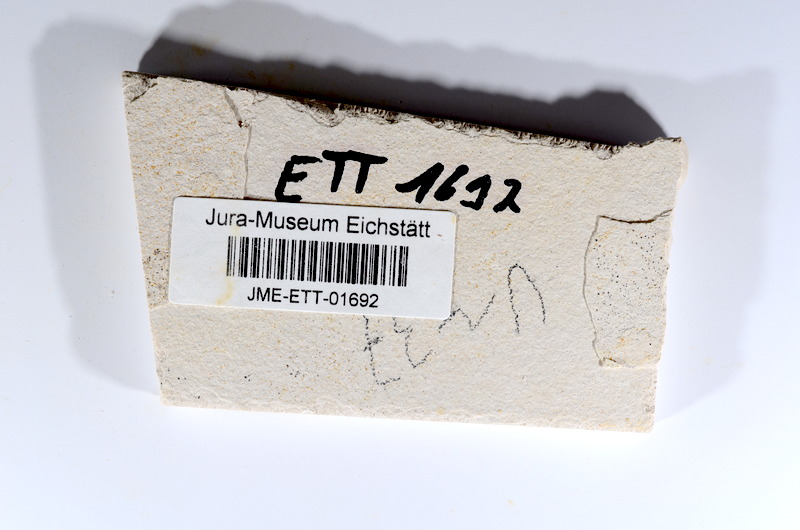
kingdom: Animalia
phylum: Chordata
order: Salmoniformes
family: Orthogonikleithridae
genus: Orthogonikleithrus
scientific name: Orthogonikleithrus hoelli
